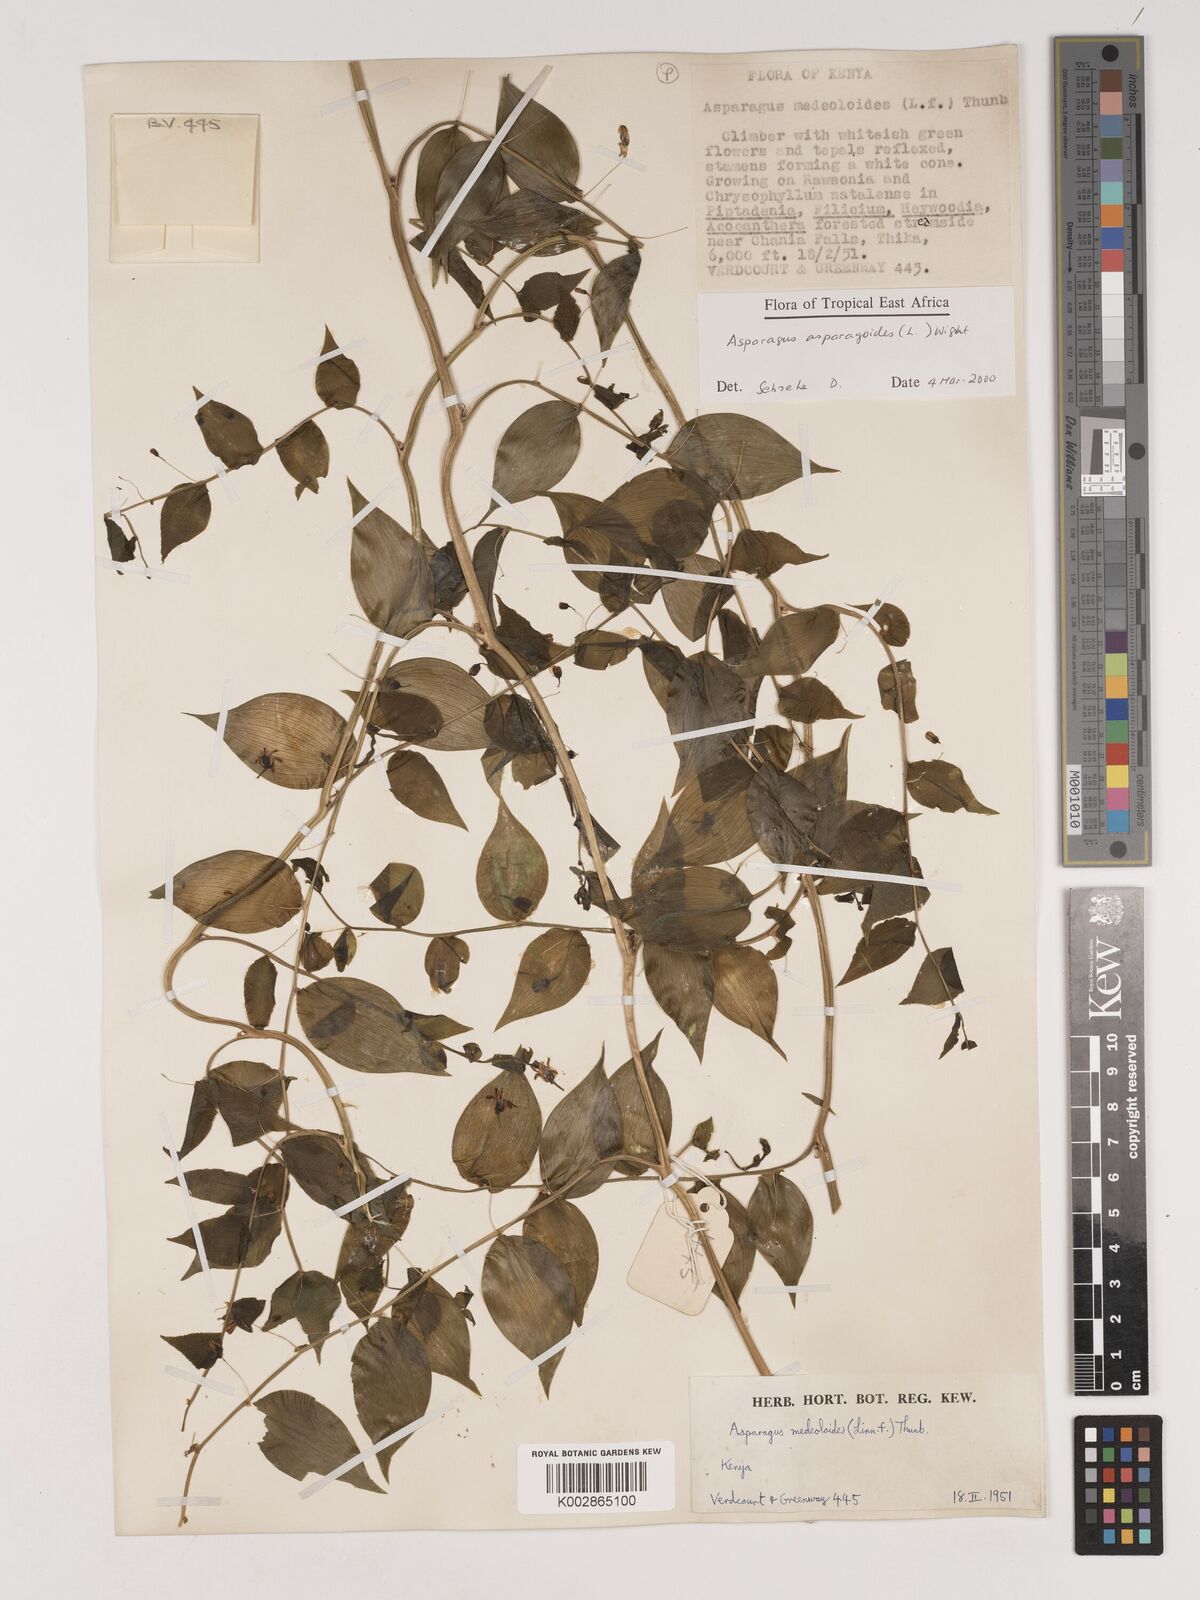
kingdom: Plantae
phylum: Tracheophyta
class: Liliopsida
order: Asparagales
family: Asparagaceae
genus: Asparagus
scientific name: Asparagus asparagoides
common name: African asparagus fern
